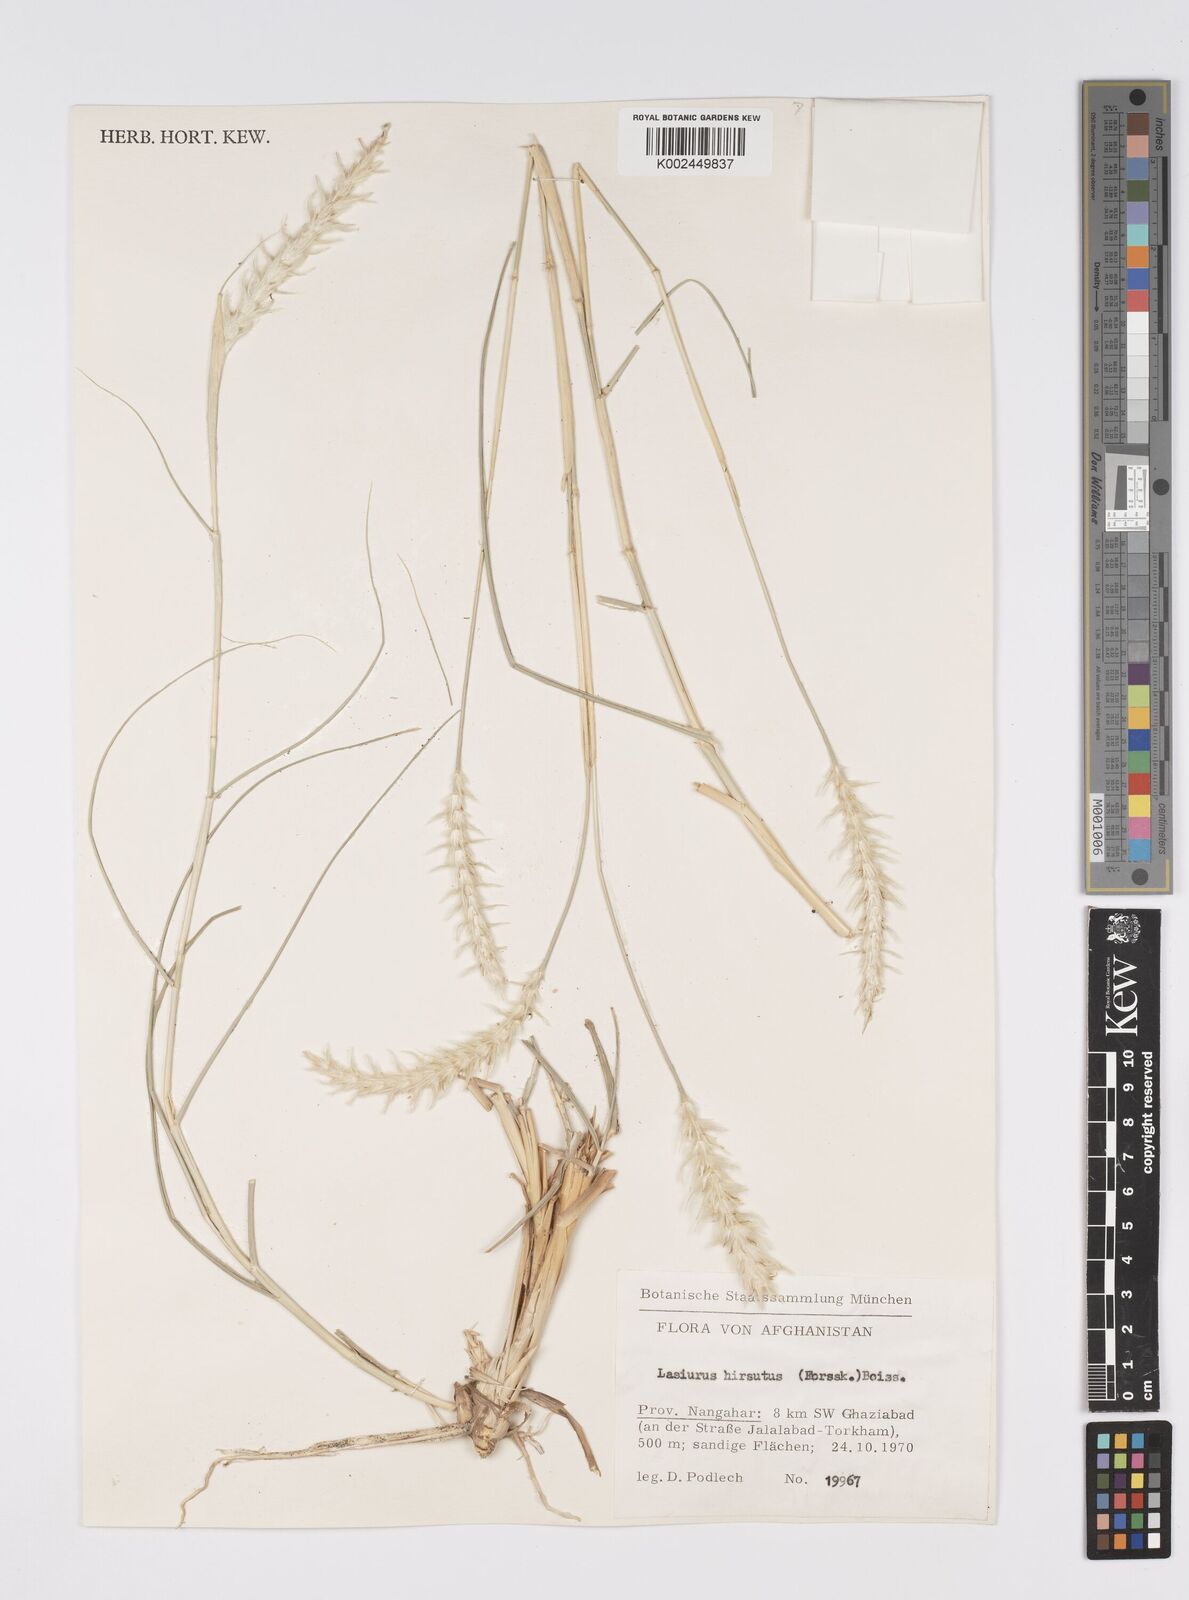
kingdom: Plantae
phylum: Tracheophyta
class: Liliopsida
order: Poales
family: Poaceae
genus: Lasiurus
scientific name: Lasiurus scindicus
